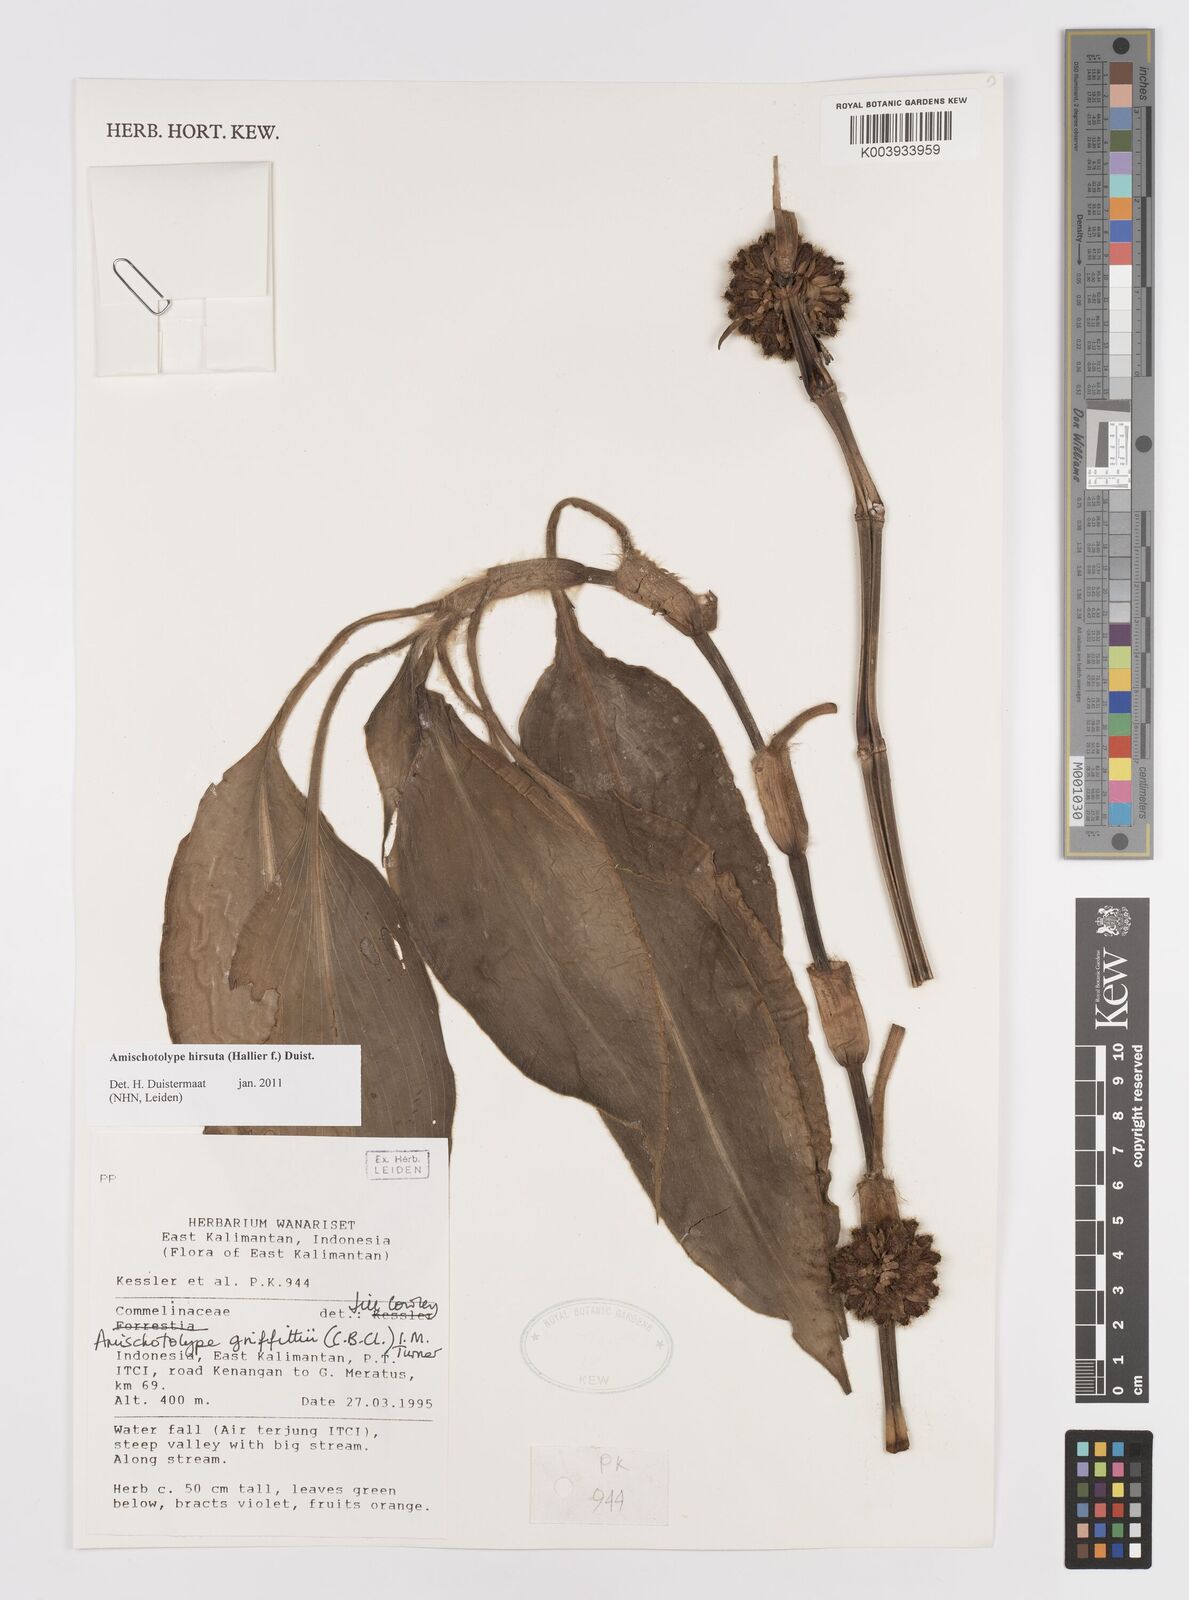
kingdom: Plantae
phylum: Tracheophyta
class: Liliopsida
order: Commelinales
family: Commelinaceae
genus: Amischotolype
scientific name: Amischotolype hirsuta
